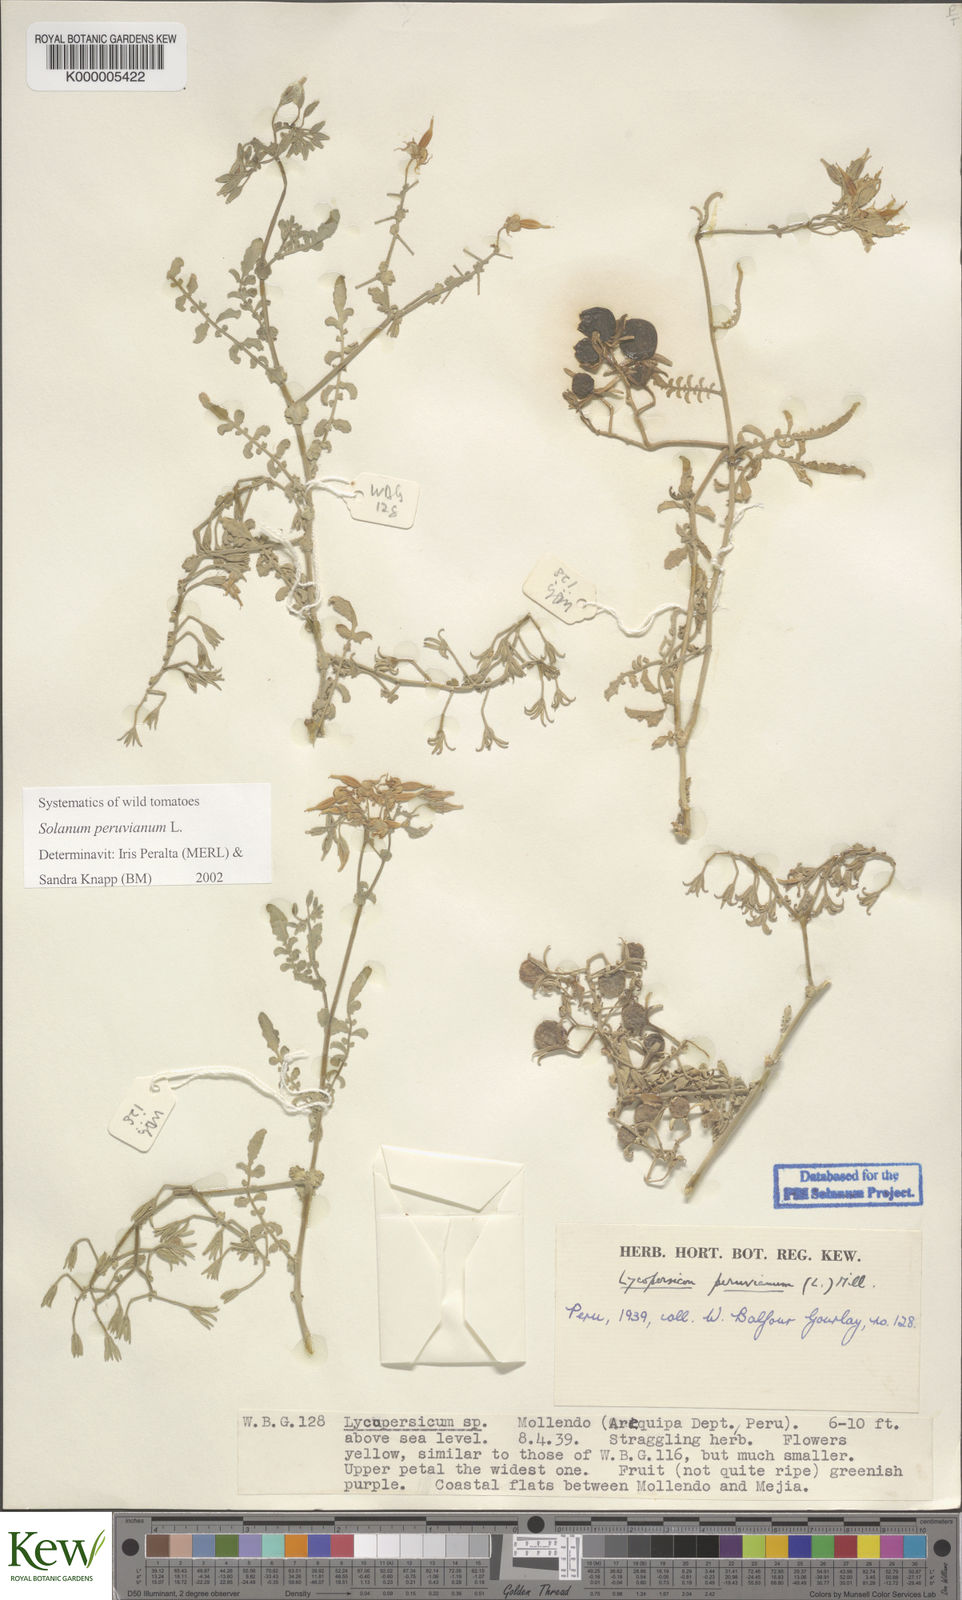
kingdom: Plantae
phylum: Tracheophyta
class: Magnoliopsida
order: Solanales
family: Solanaceae
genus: Solanum
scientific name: Solanum peruvianum
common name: Peruvian nightshade
